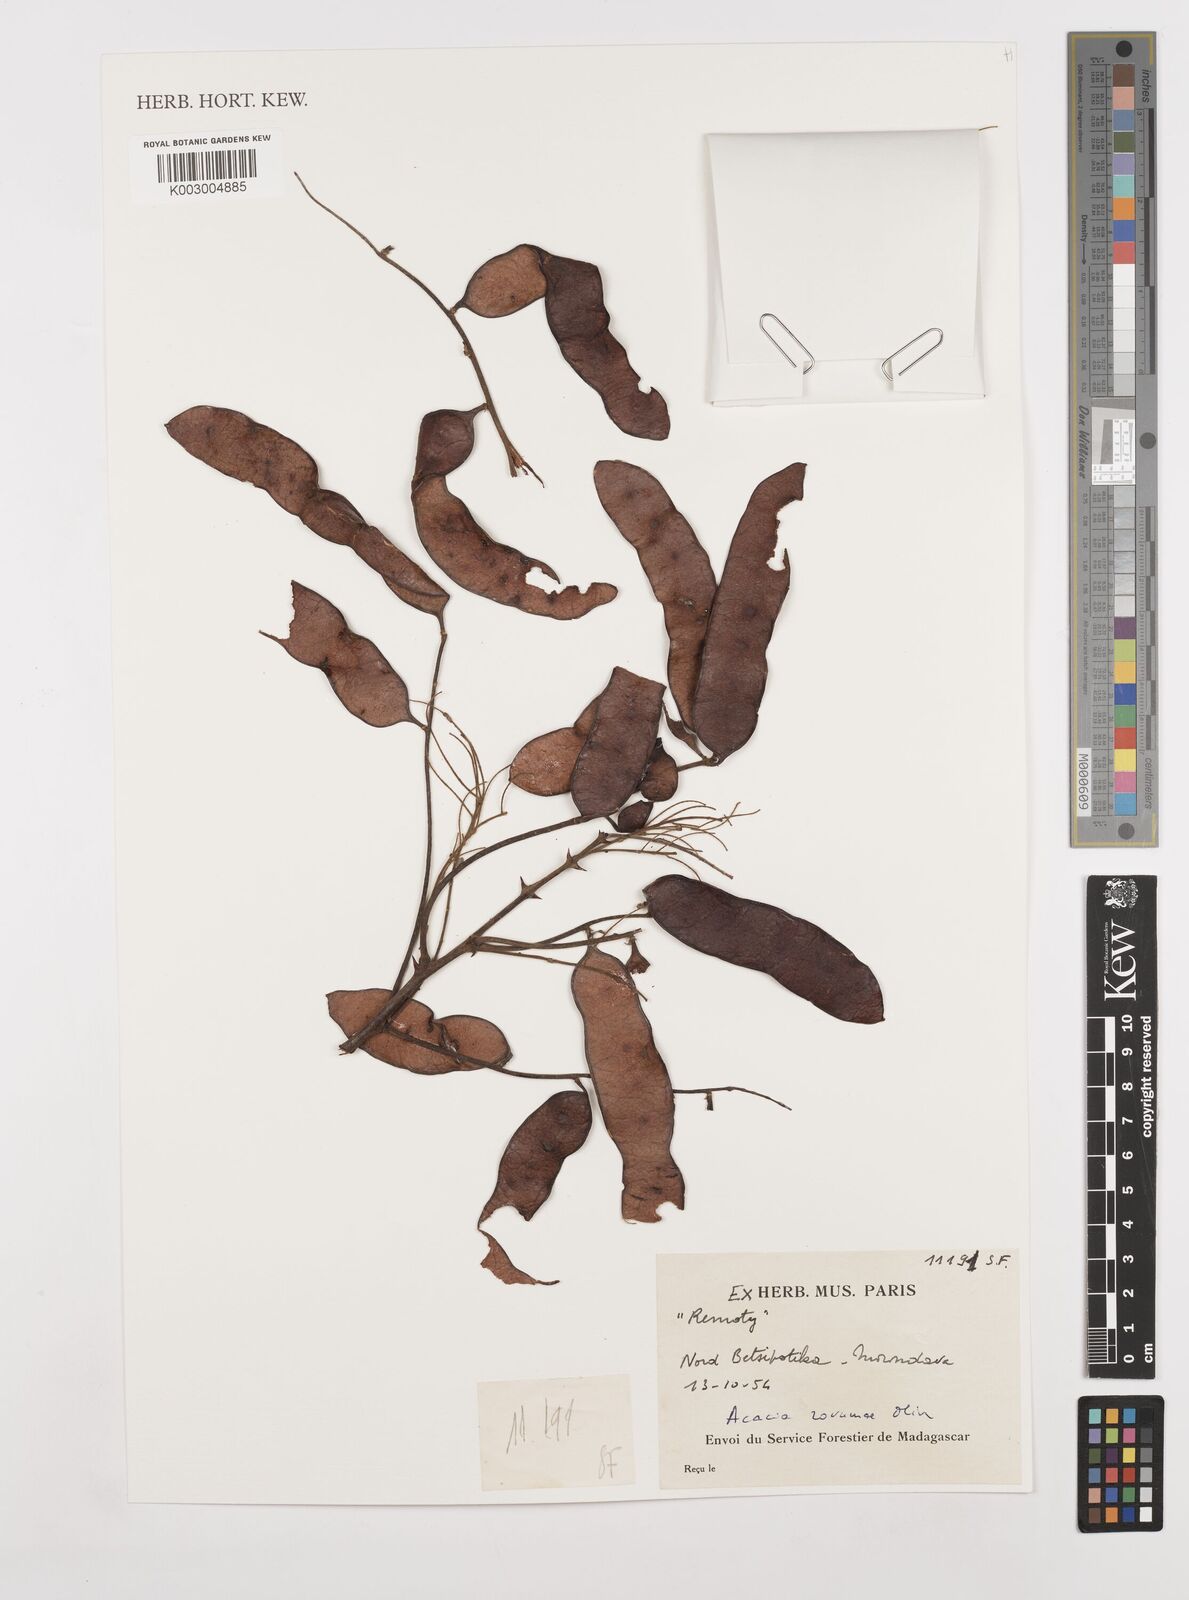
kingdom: Plantae
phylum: Tracheophyta
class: Magnoliopsida
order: Fabales
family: Fabaceae
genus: Senegalia
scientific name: Senegalia rovumae
